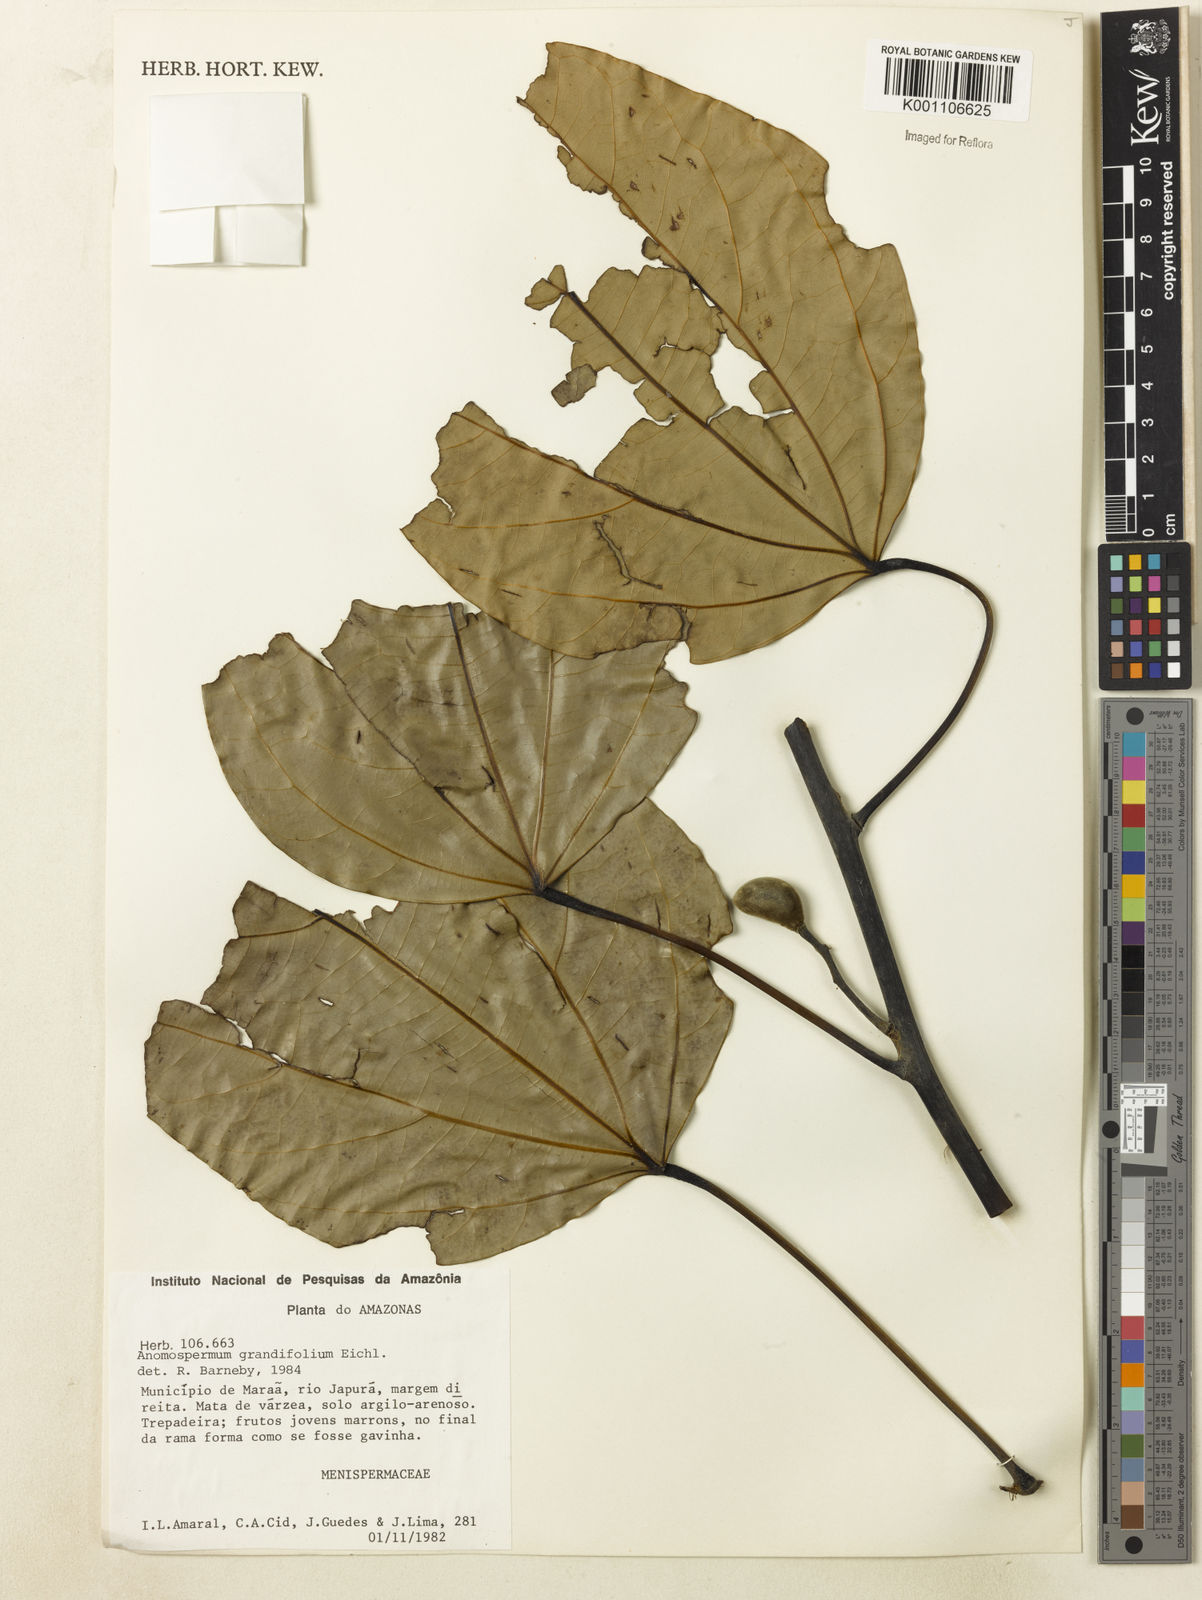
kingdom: Plantae
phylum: Tracheophyta
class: Magnoliopsida
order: Ranunculales
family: Menispermaceae
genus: Elissarrhena
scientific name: Elissarrhena longipes
